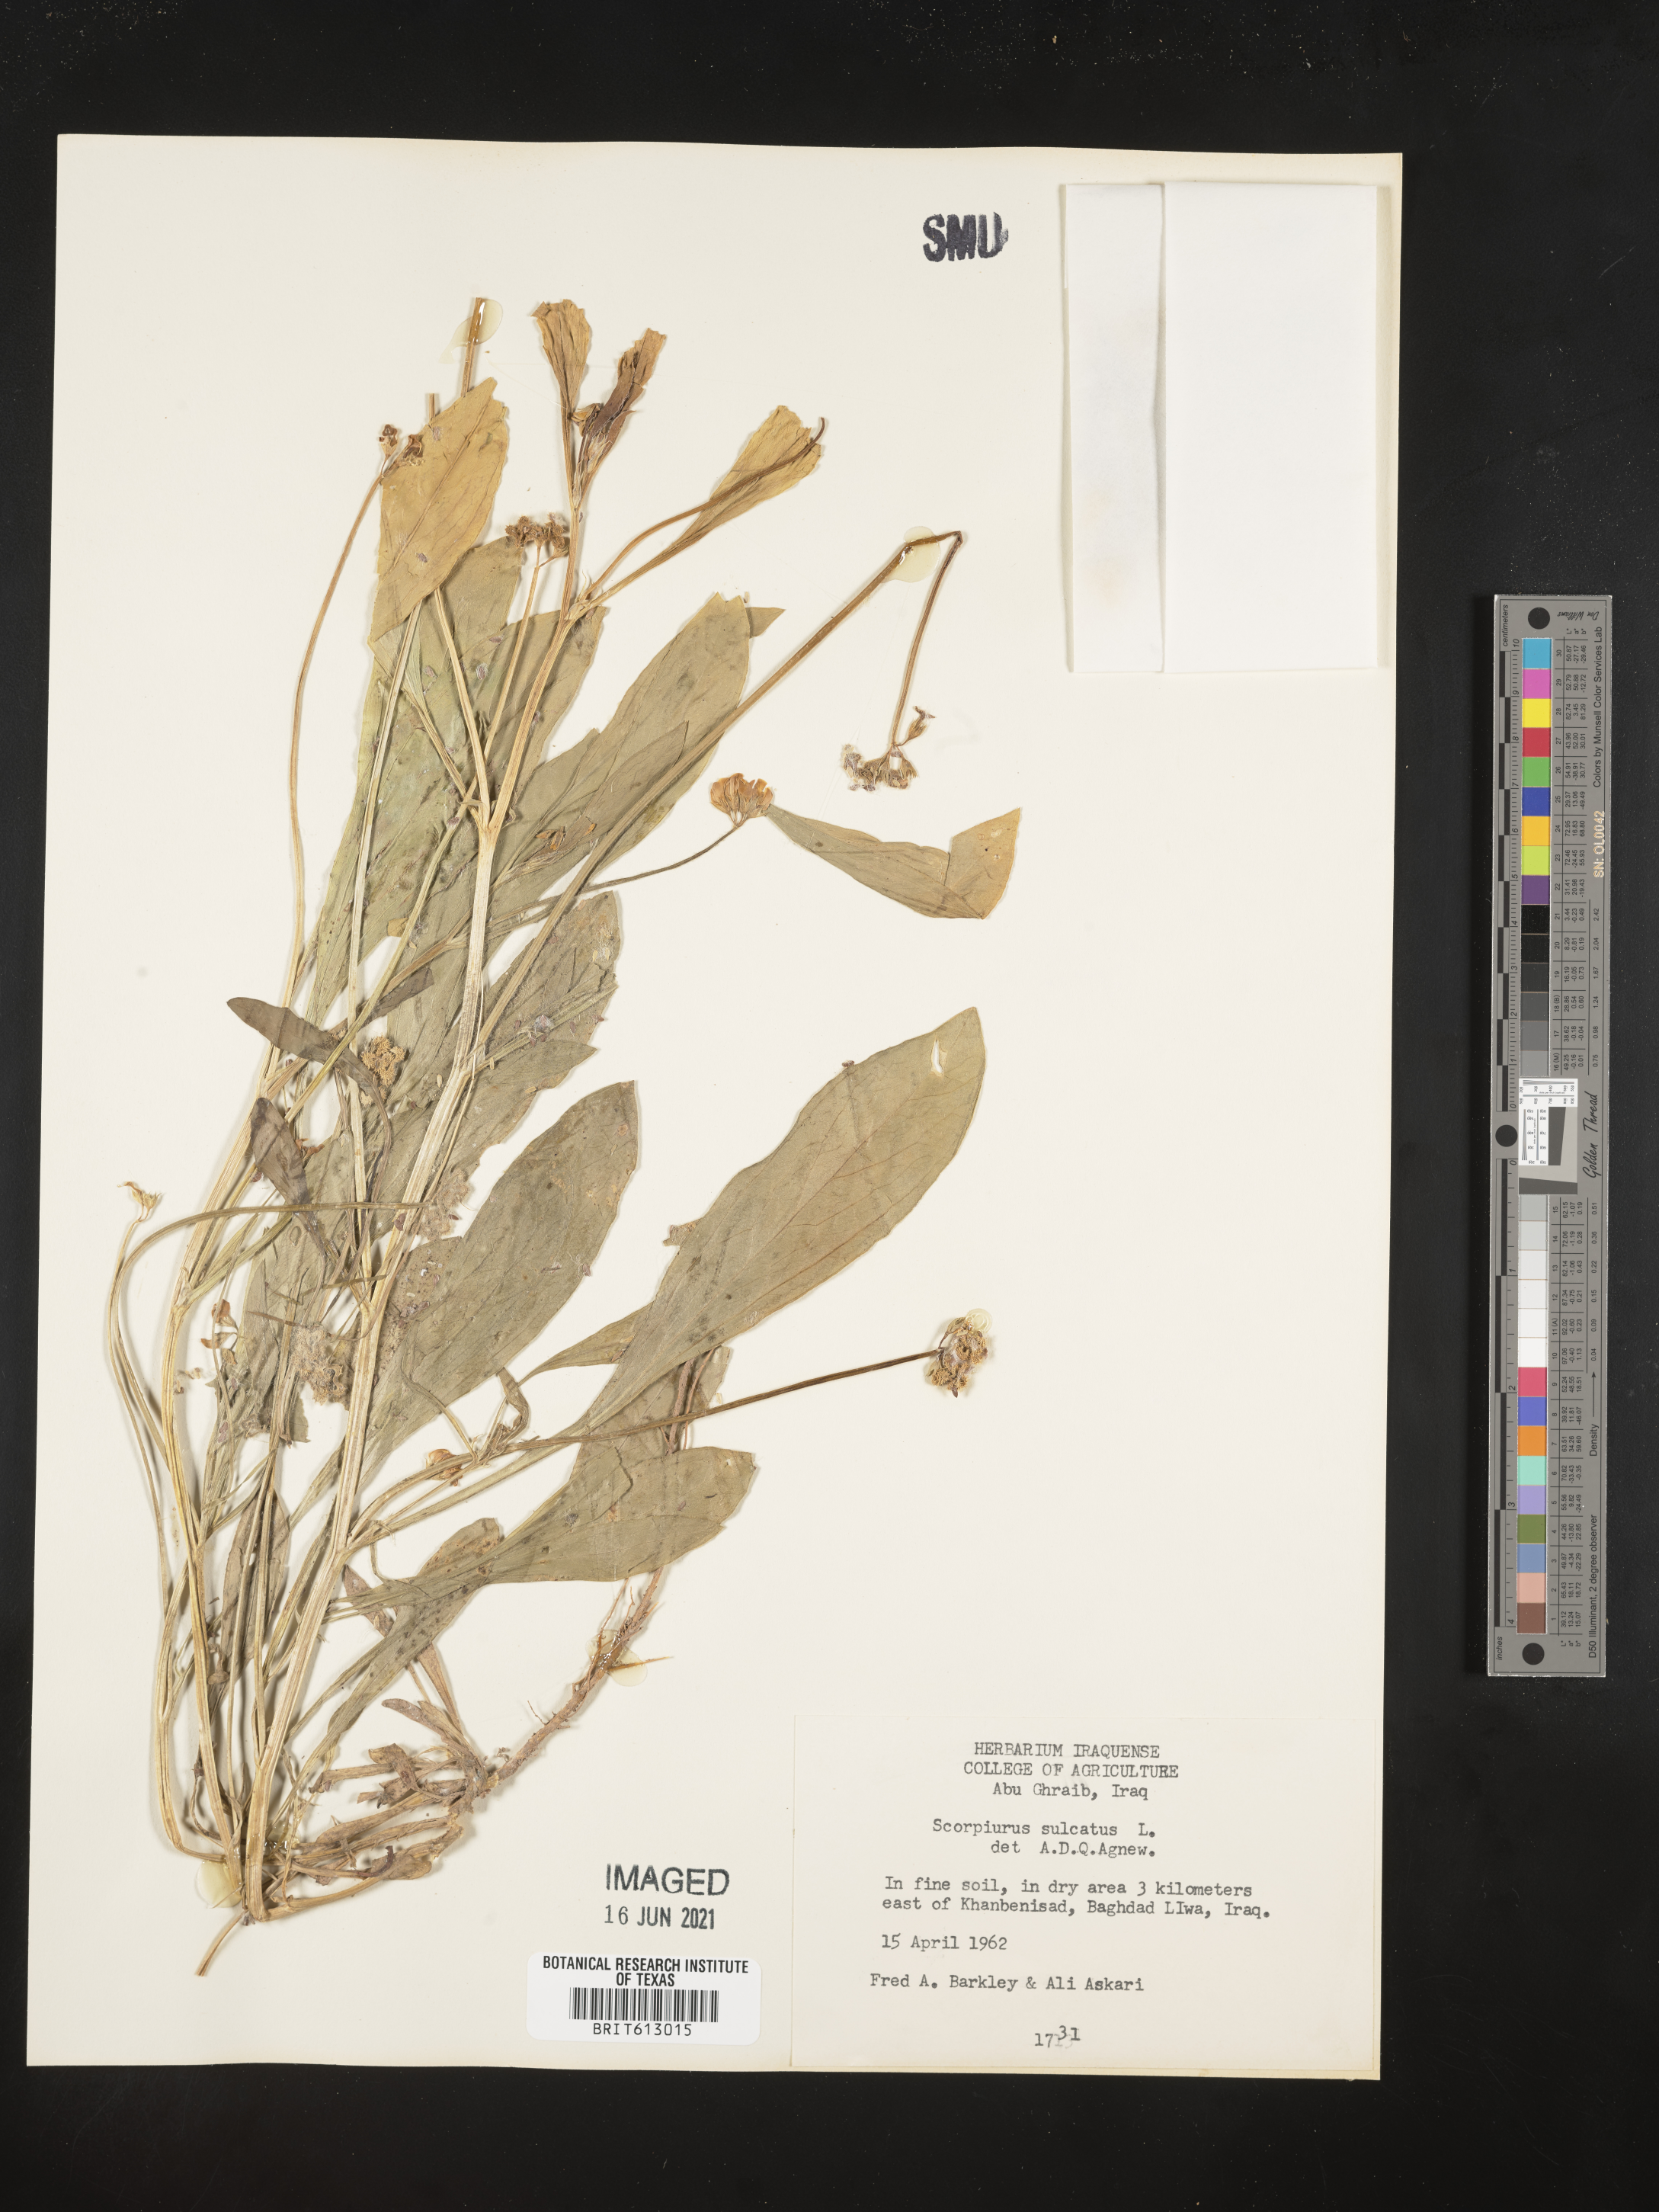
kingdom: Plantae
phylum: Tracheophyta
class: Magnoliopsida
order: Fabales
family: Fabaceae
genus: Scorpiurus
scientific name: Scorpiurus muricatus
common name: Caterpillar-plant
